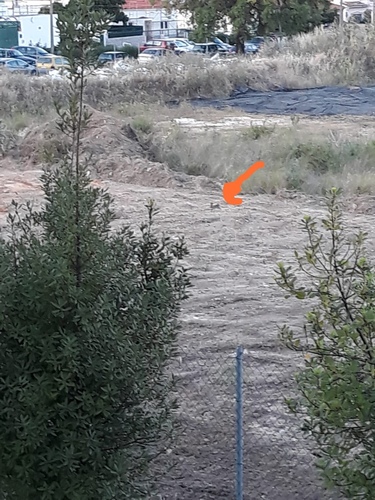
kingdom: Animalia
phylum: Chordata
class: Mammalia
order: Lagomorpha
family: Leporidae
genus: Oryctolagus
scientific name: Oryctolagus cuniculus
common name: European rabbit
